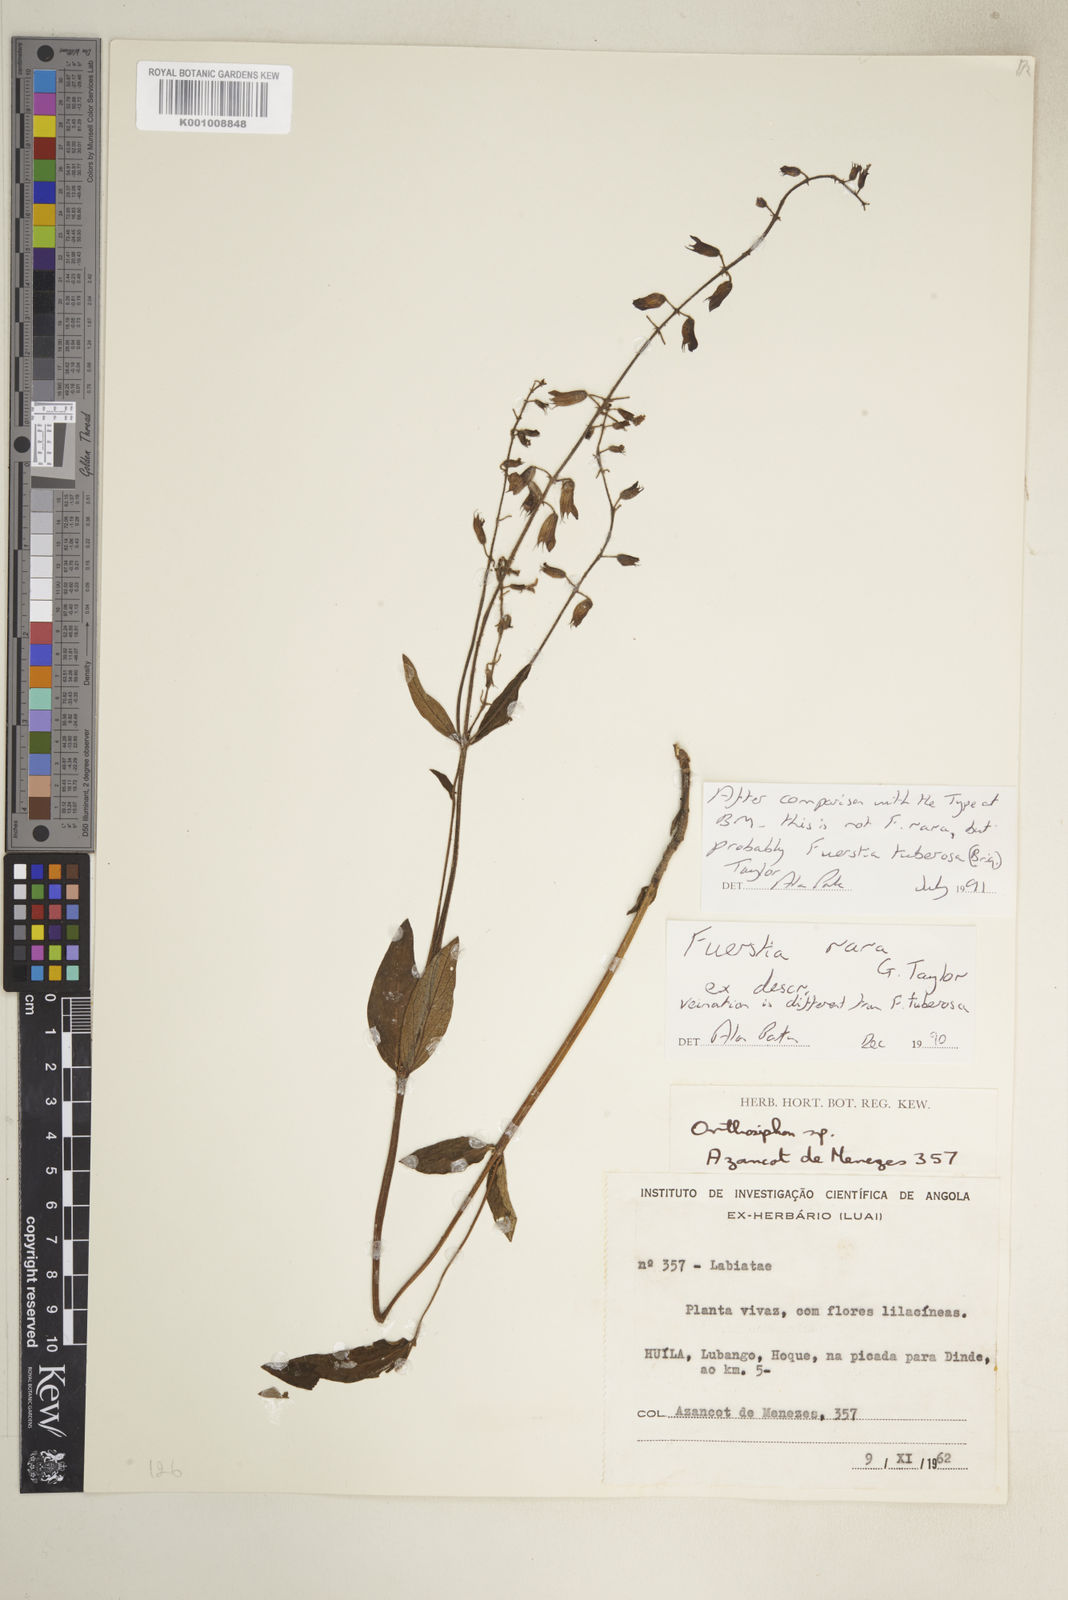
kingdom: Plantae
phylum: Tracheophyta
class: Magnoliopsida
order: Lamiales
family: Lamiaceae
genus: Fuerstia
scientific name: Fuerstia rigida
